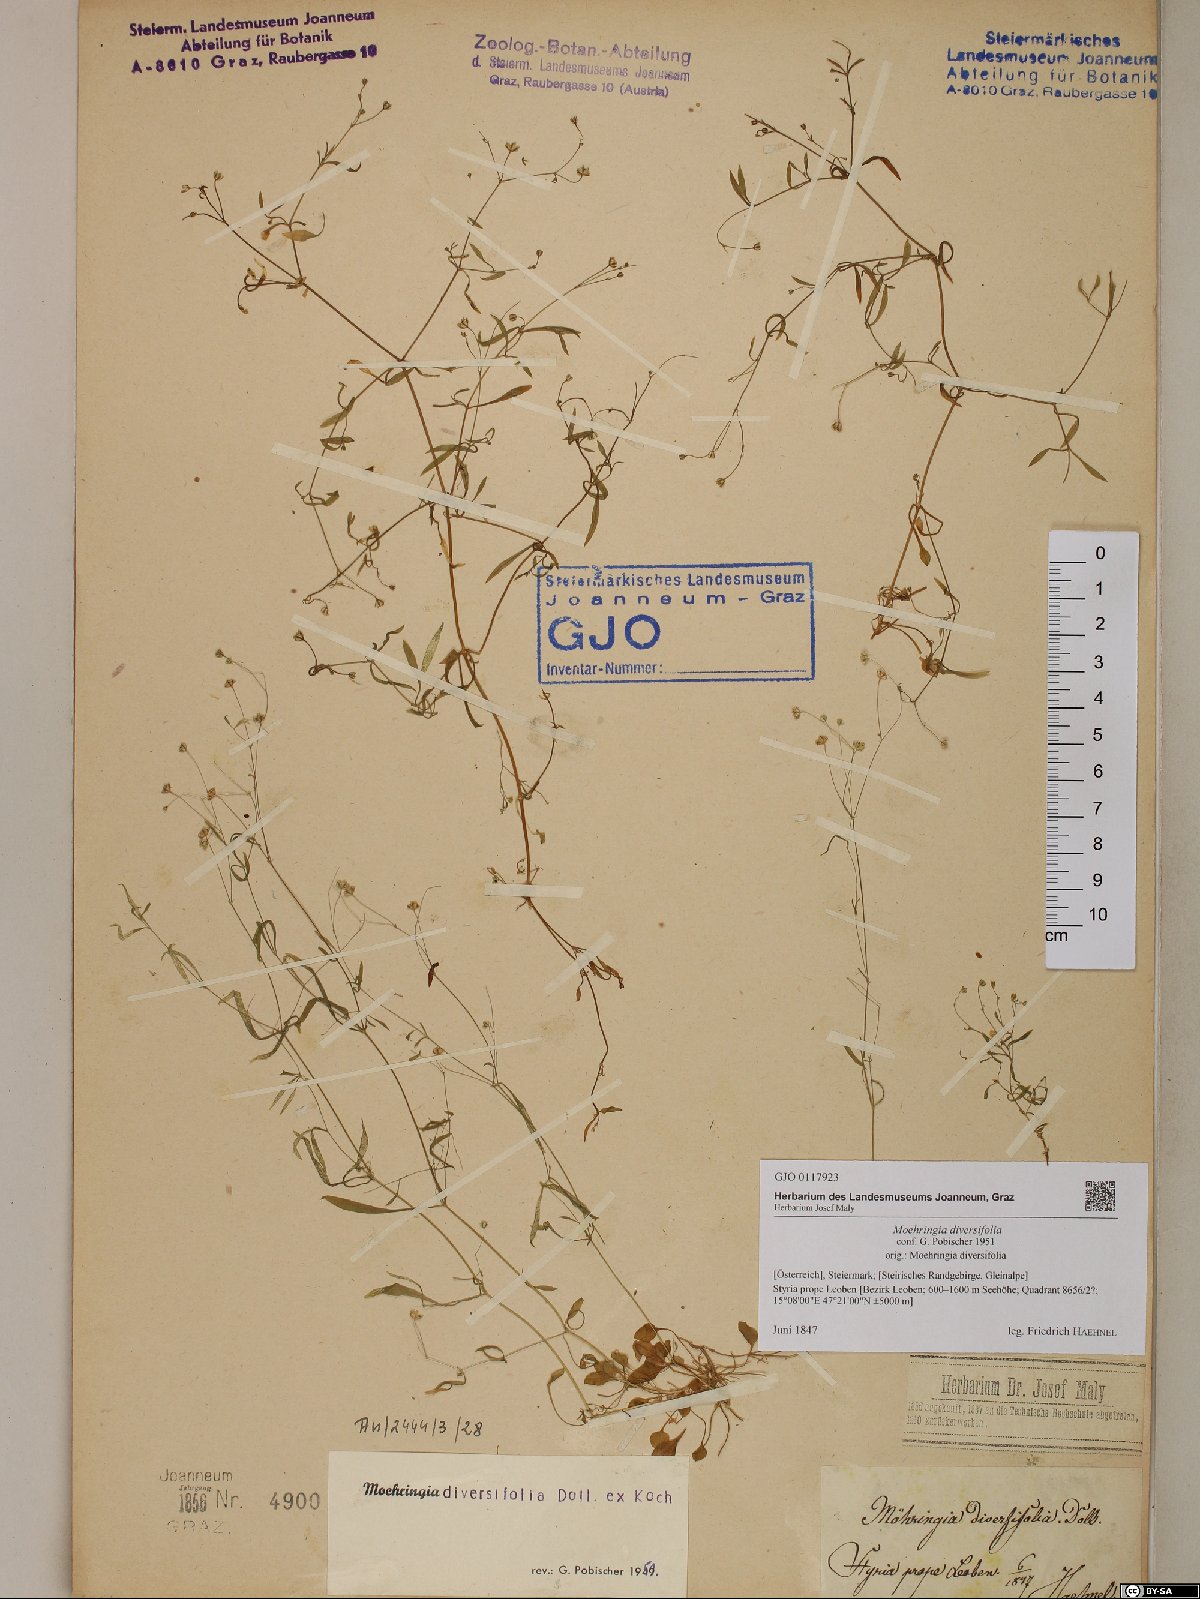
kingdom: Plantae
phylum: Tracheophyta
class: Magnoliopsida
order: Caryophyllales
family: Caryophyllaceae
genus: Moehringia
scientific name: Moehringia diversifolia
